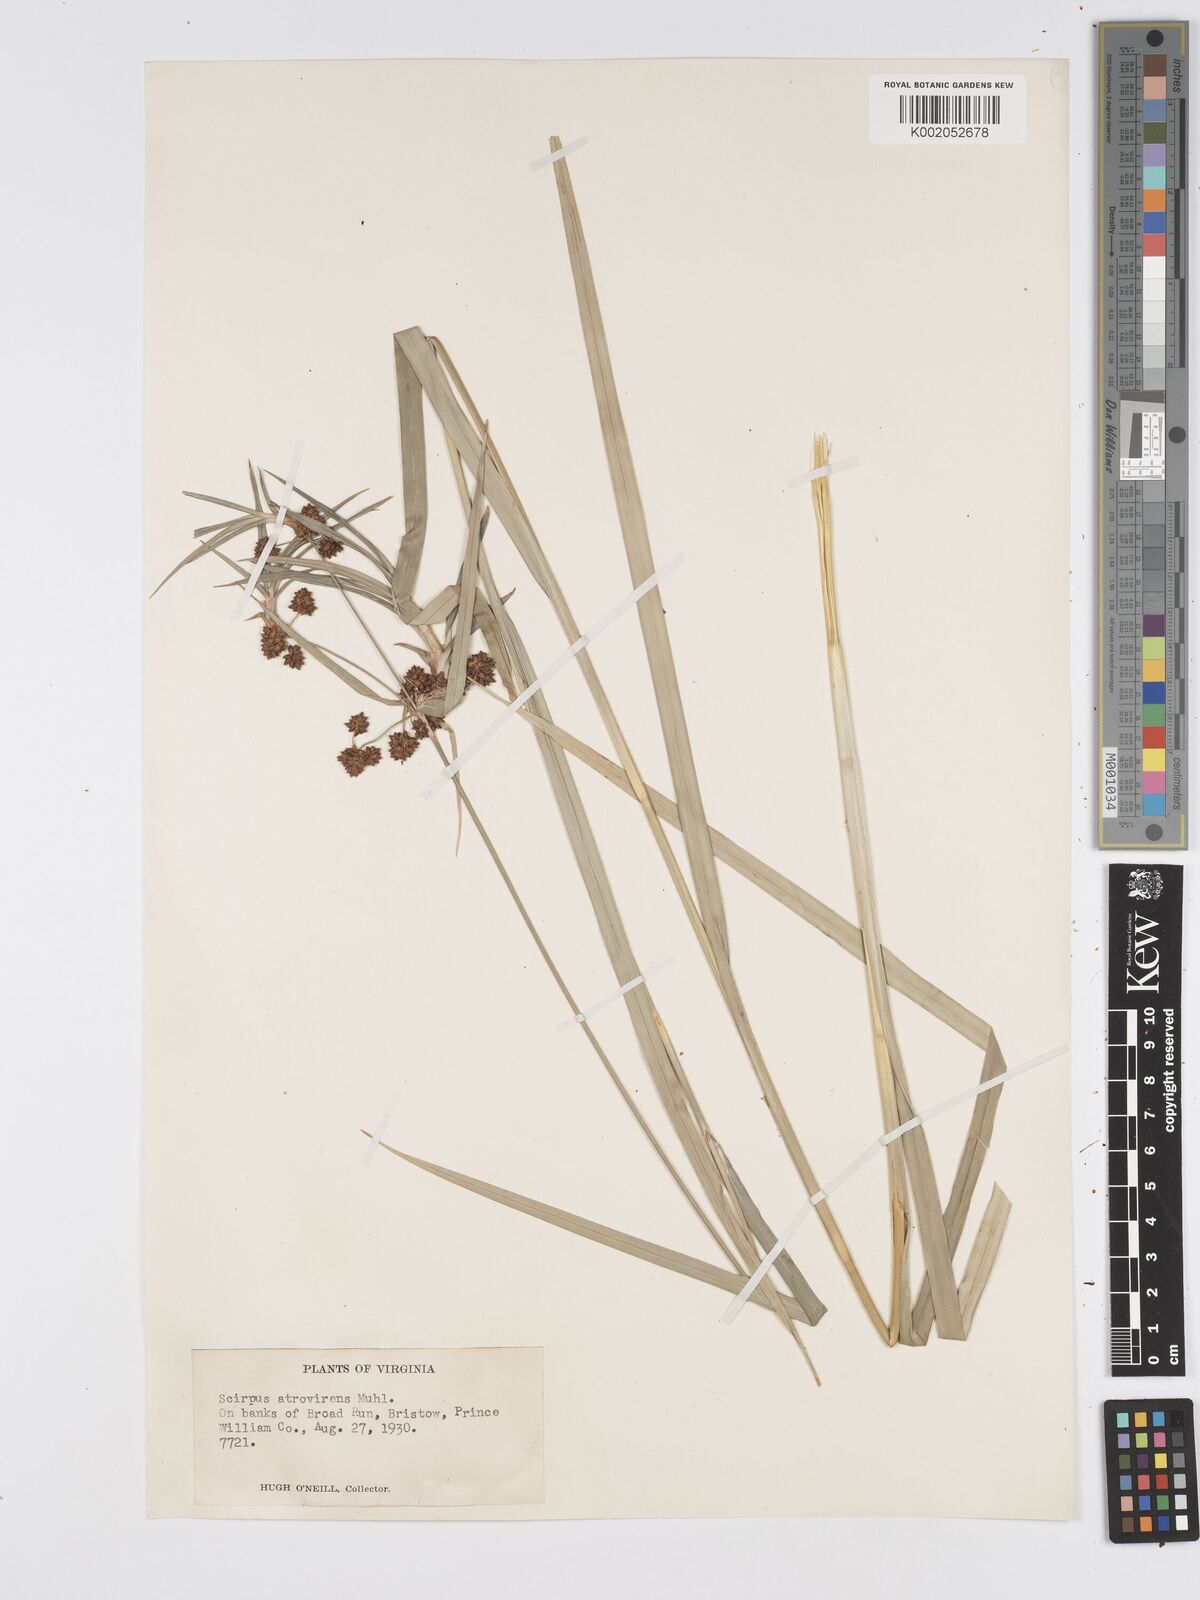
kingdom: Plantae
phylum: Tracheophyta
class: Liliopsida
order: Poales
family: Cyperaceae
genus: Scirpus
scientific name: Scirpus atrovirens
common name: Black bulrush
